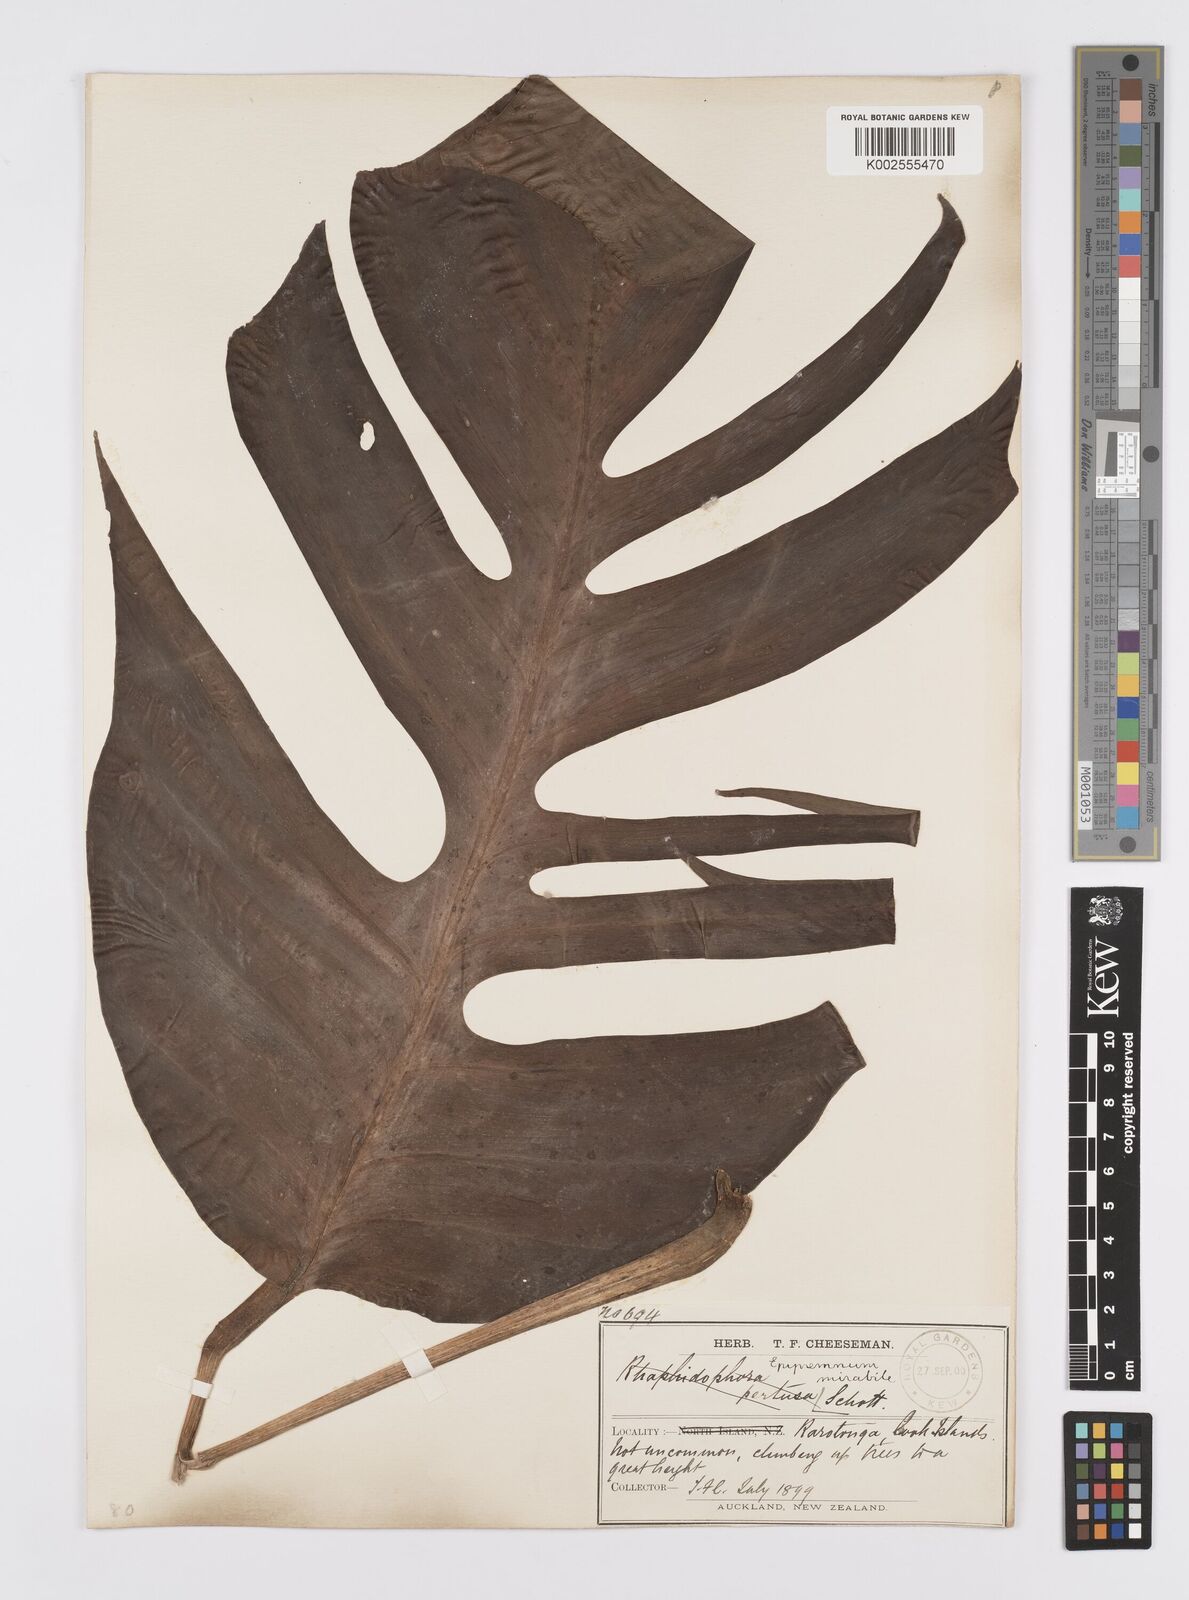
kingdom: Plantae
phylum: Tracheophyta
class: Liliopsida
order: Alismatales
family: Araceae
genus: Epipremnum
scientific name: Epipremnum pinnatum
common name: Centipede tongavine
